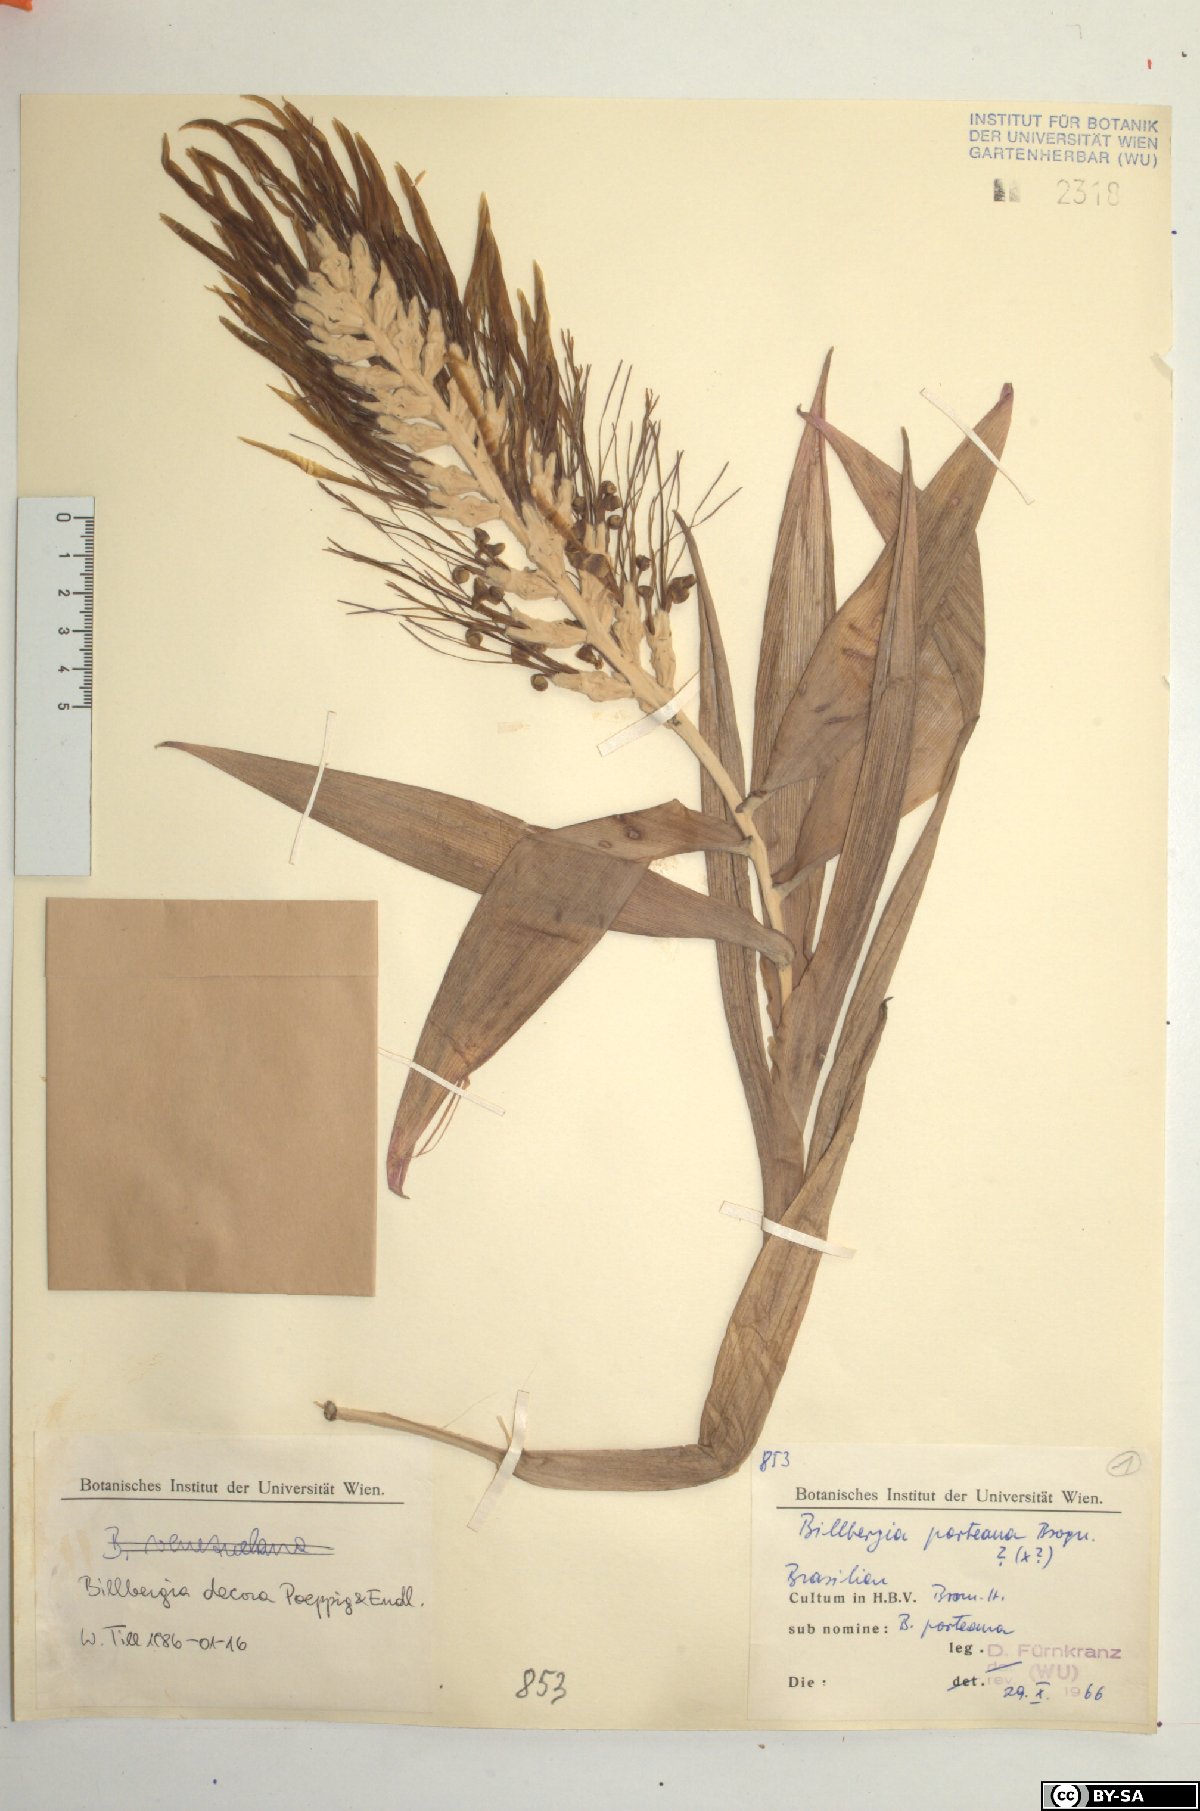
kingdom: Plantae
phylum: Tracheophyta
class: Liliopsida
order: Poales
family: Bromeliaceae
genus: Billbergia
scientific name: Billbergia decora
